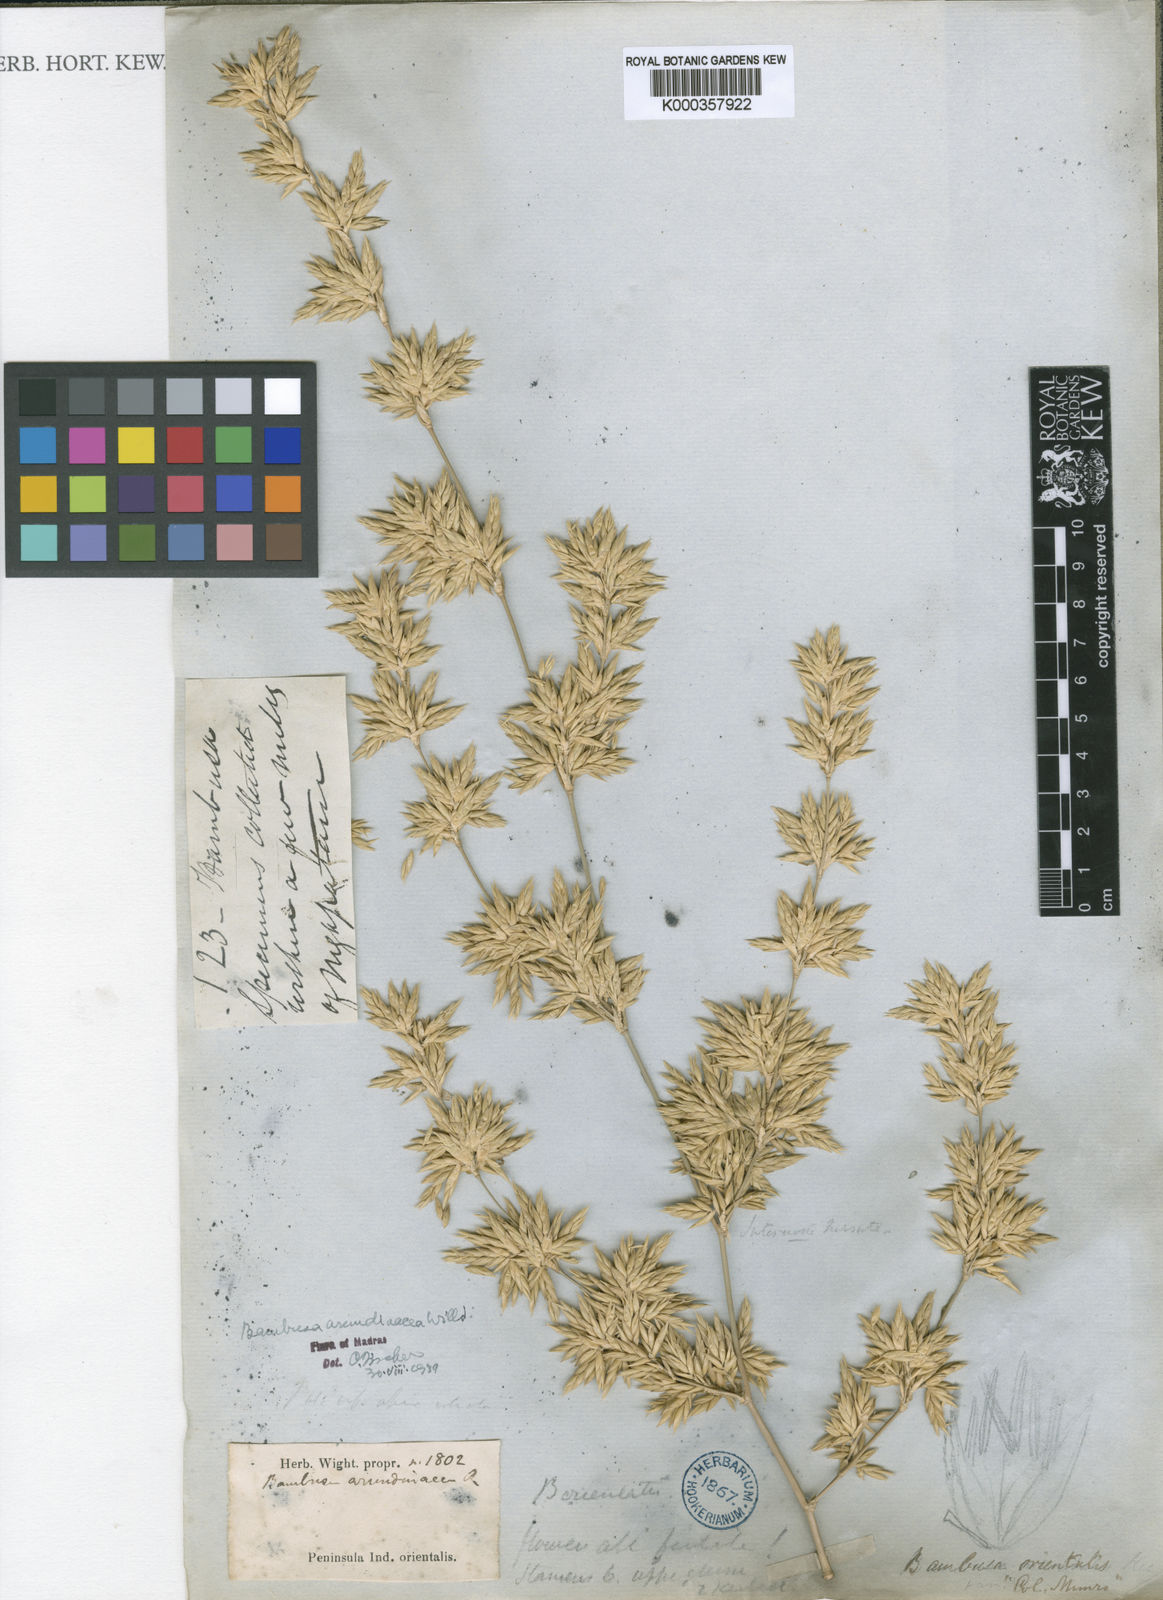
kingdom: Plantae
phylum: Tracheophyta
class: Liliopsida
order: Poales
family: Poaceae
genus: Bambusa
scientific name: Bambusa bambos
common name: Indian thorny bamboo
